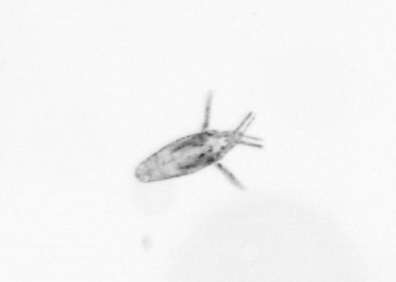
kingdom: Animalia
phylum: Arthropoda
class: Copepoda
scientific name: Copepoda
